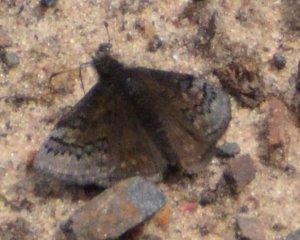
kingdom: Animalia
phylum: Arthropoda
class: Insecta
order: Lepidoptera
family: Hesperiidae
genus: Erynnis
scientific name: Erynnis brizo
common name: Sleepy Duskywing
